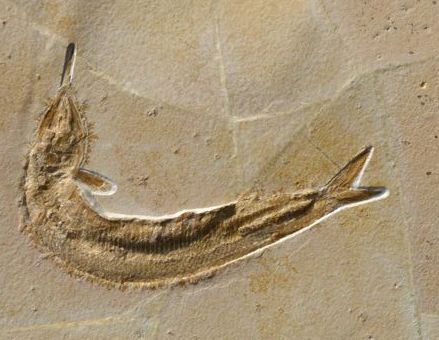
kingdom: Animalia
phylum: Chordata
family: Aspidorhynchidae
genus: Aspidorhynchus
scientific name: Aspidorhynchus acutirostris
